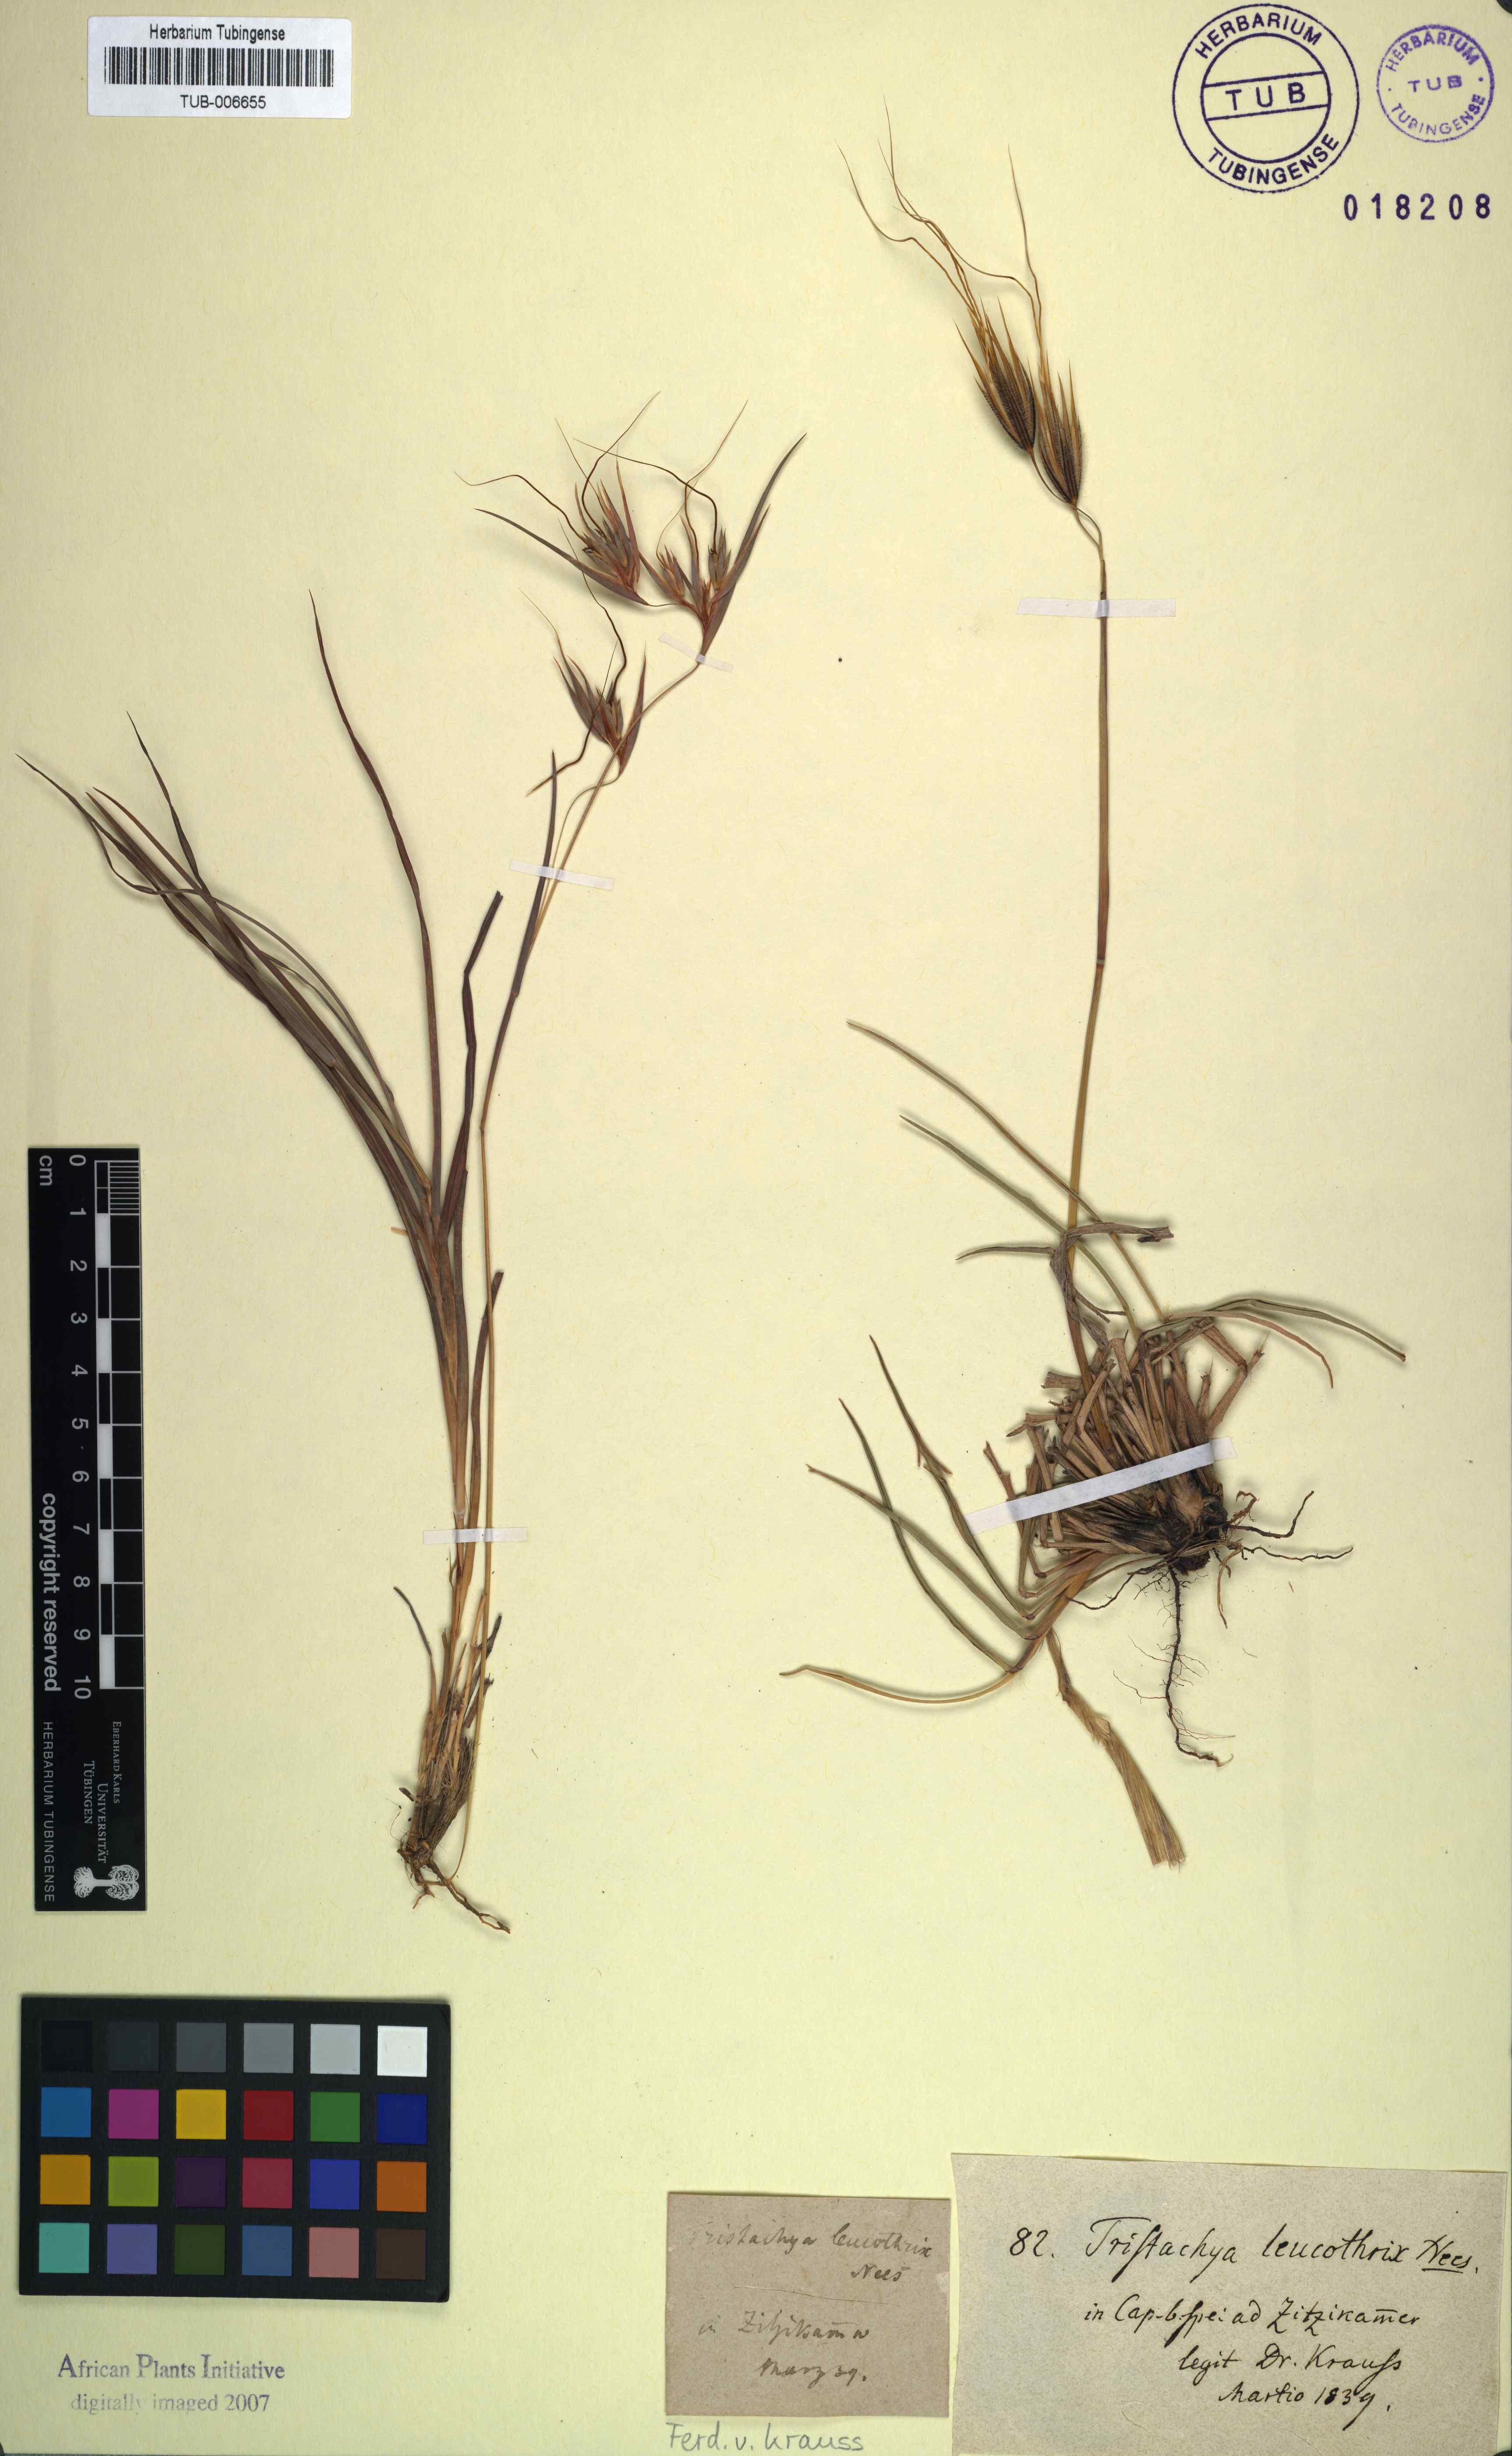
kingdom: Plantae
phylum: Tracheophyta
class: Liliopsida
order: Poales
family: Poaceae
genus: Tristachya
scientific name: Tristachya leucothrix
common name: Trident grass
